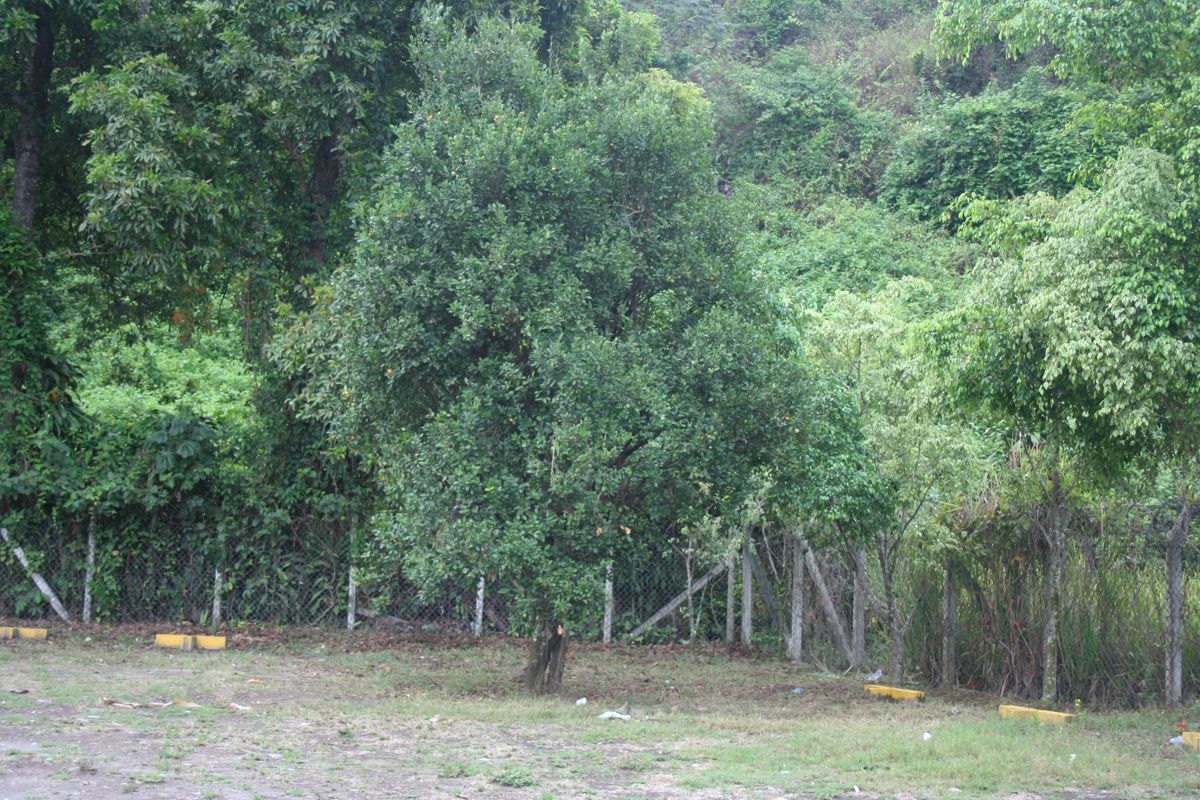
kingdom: Plantae
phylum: Tracheophyta
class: Magnoliopsida
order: Sapindales
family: Rutaceae
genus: Citrus
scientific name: Citrus
